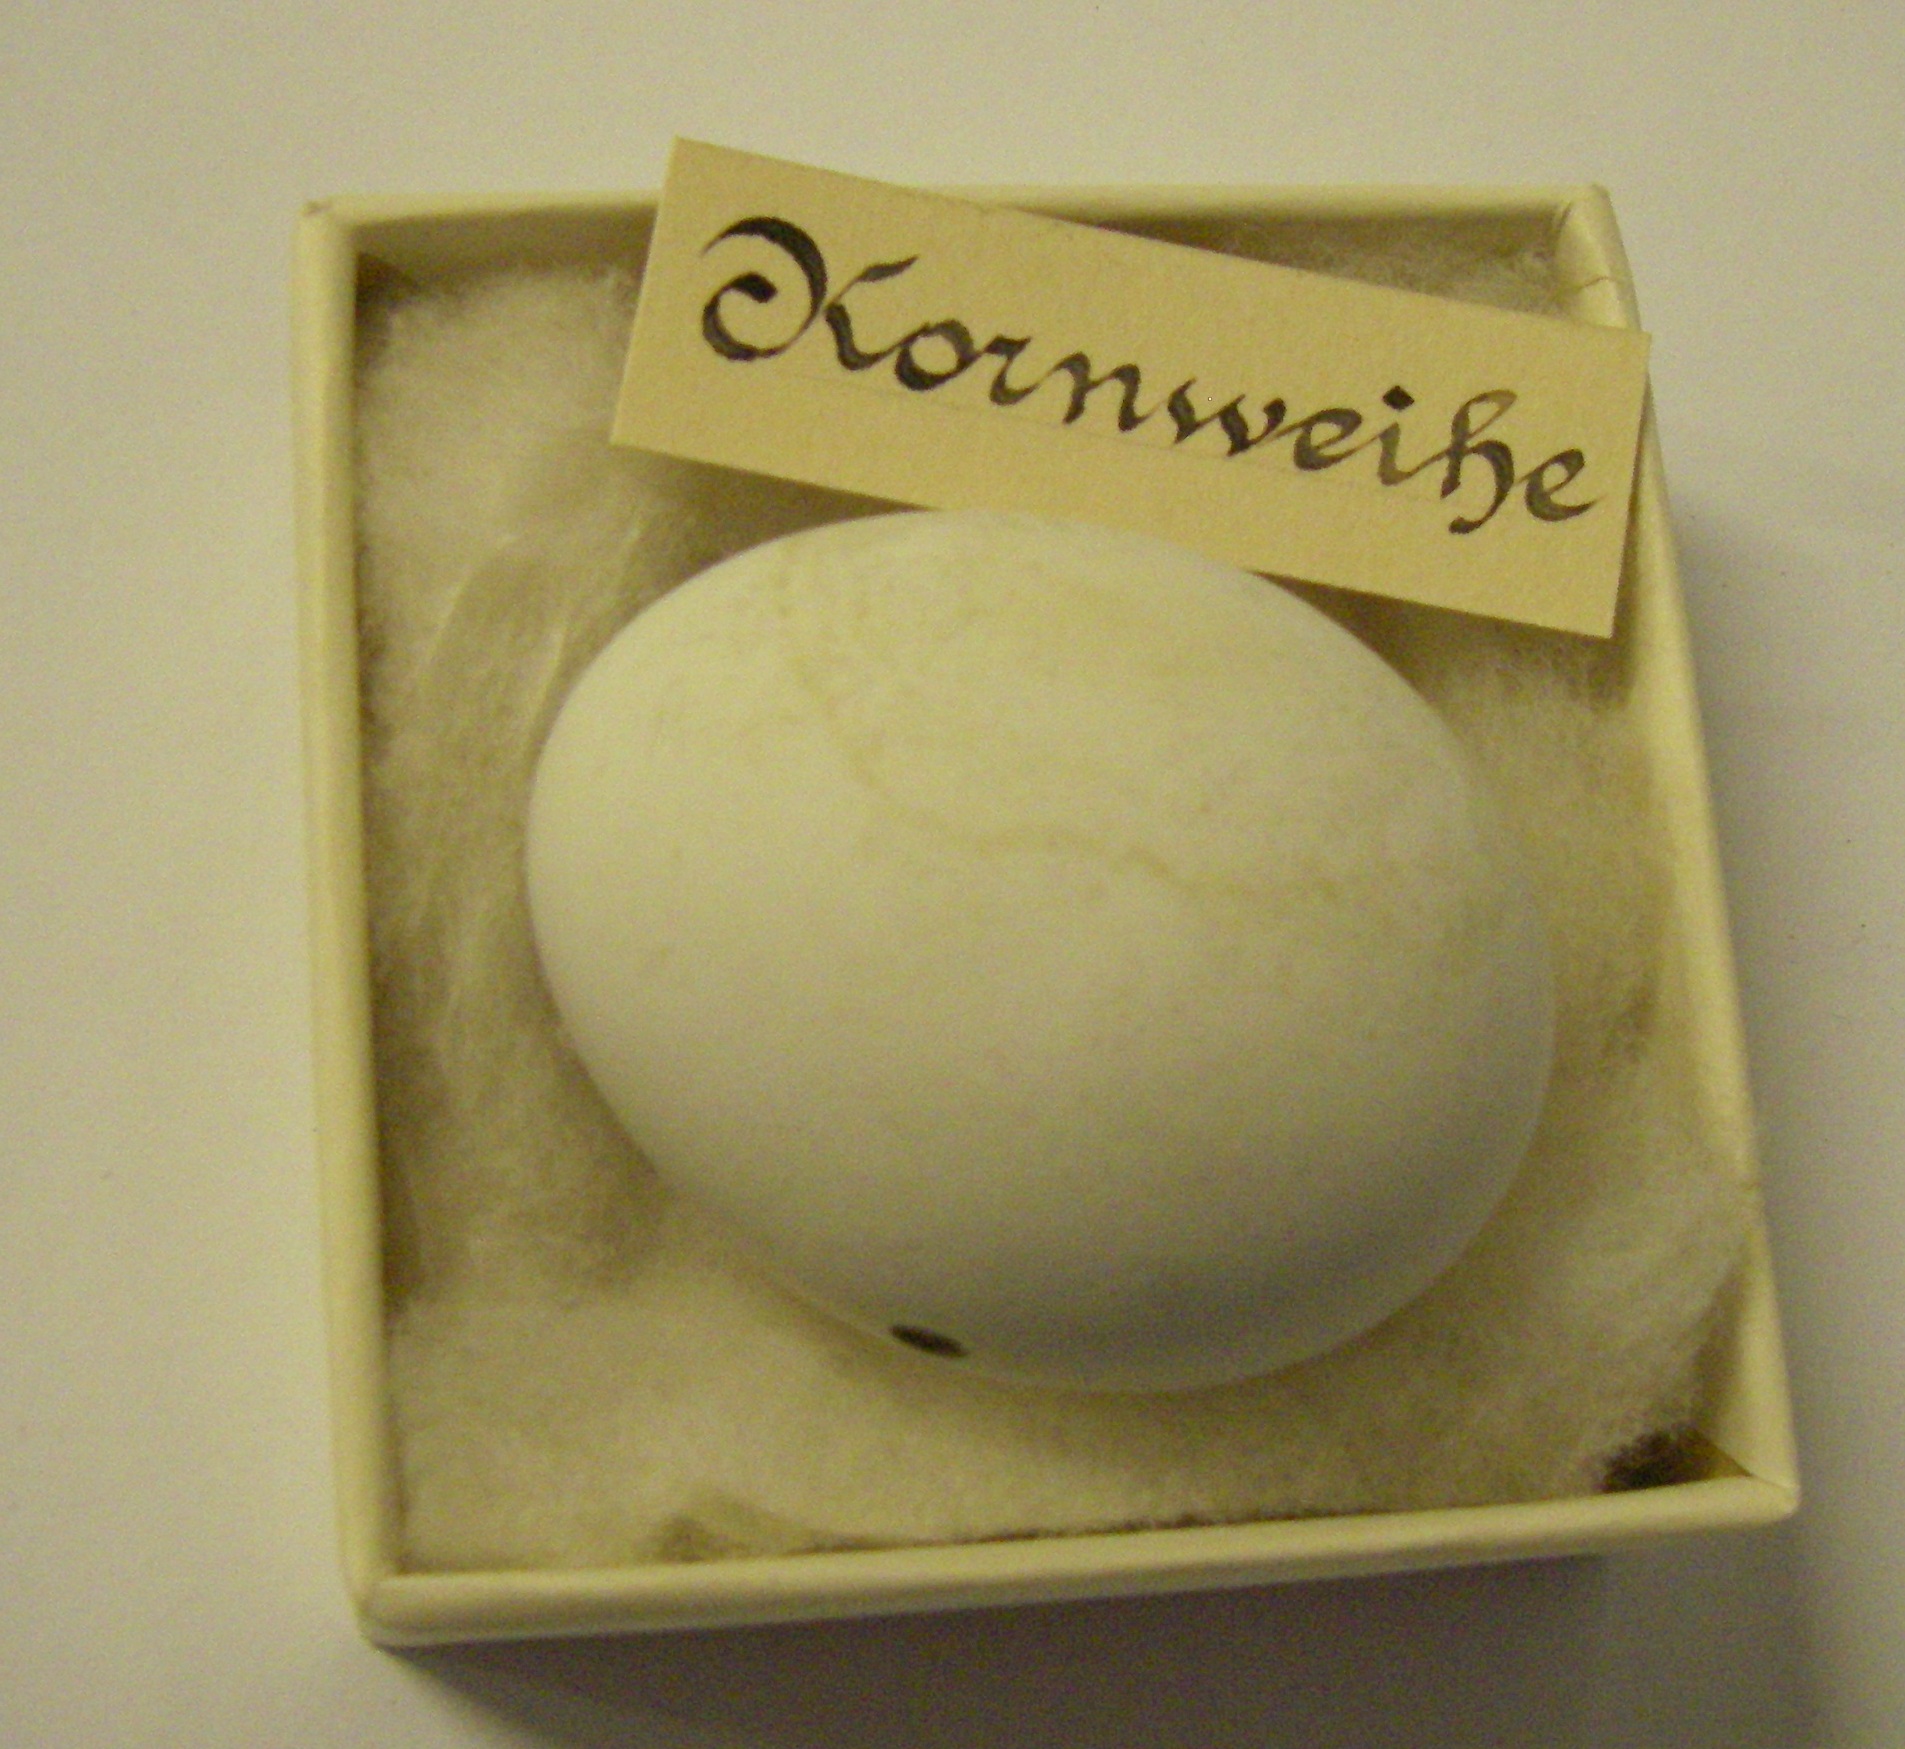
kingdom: Animalia
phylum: Chordata
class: Aves
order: Accipitriformes
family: Accipitridae
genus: Circus
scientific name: Circus cyaneus
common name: Hen harrier
